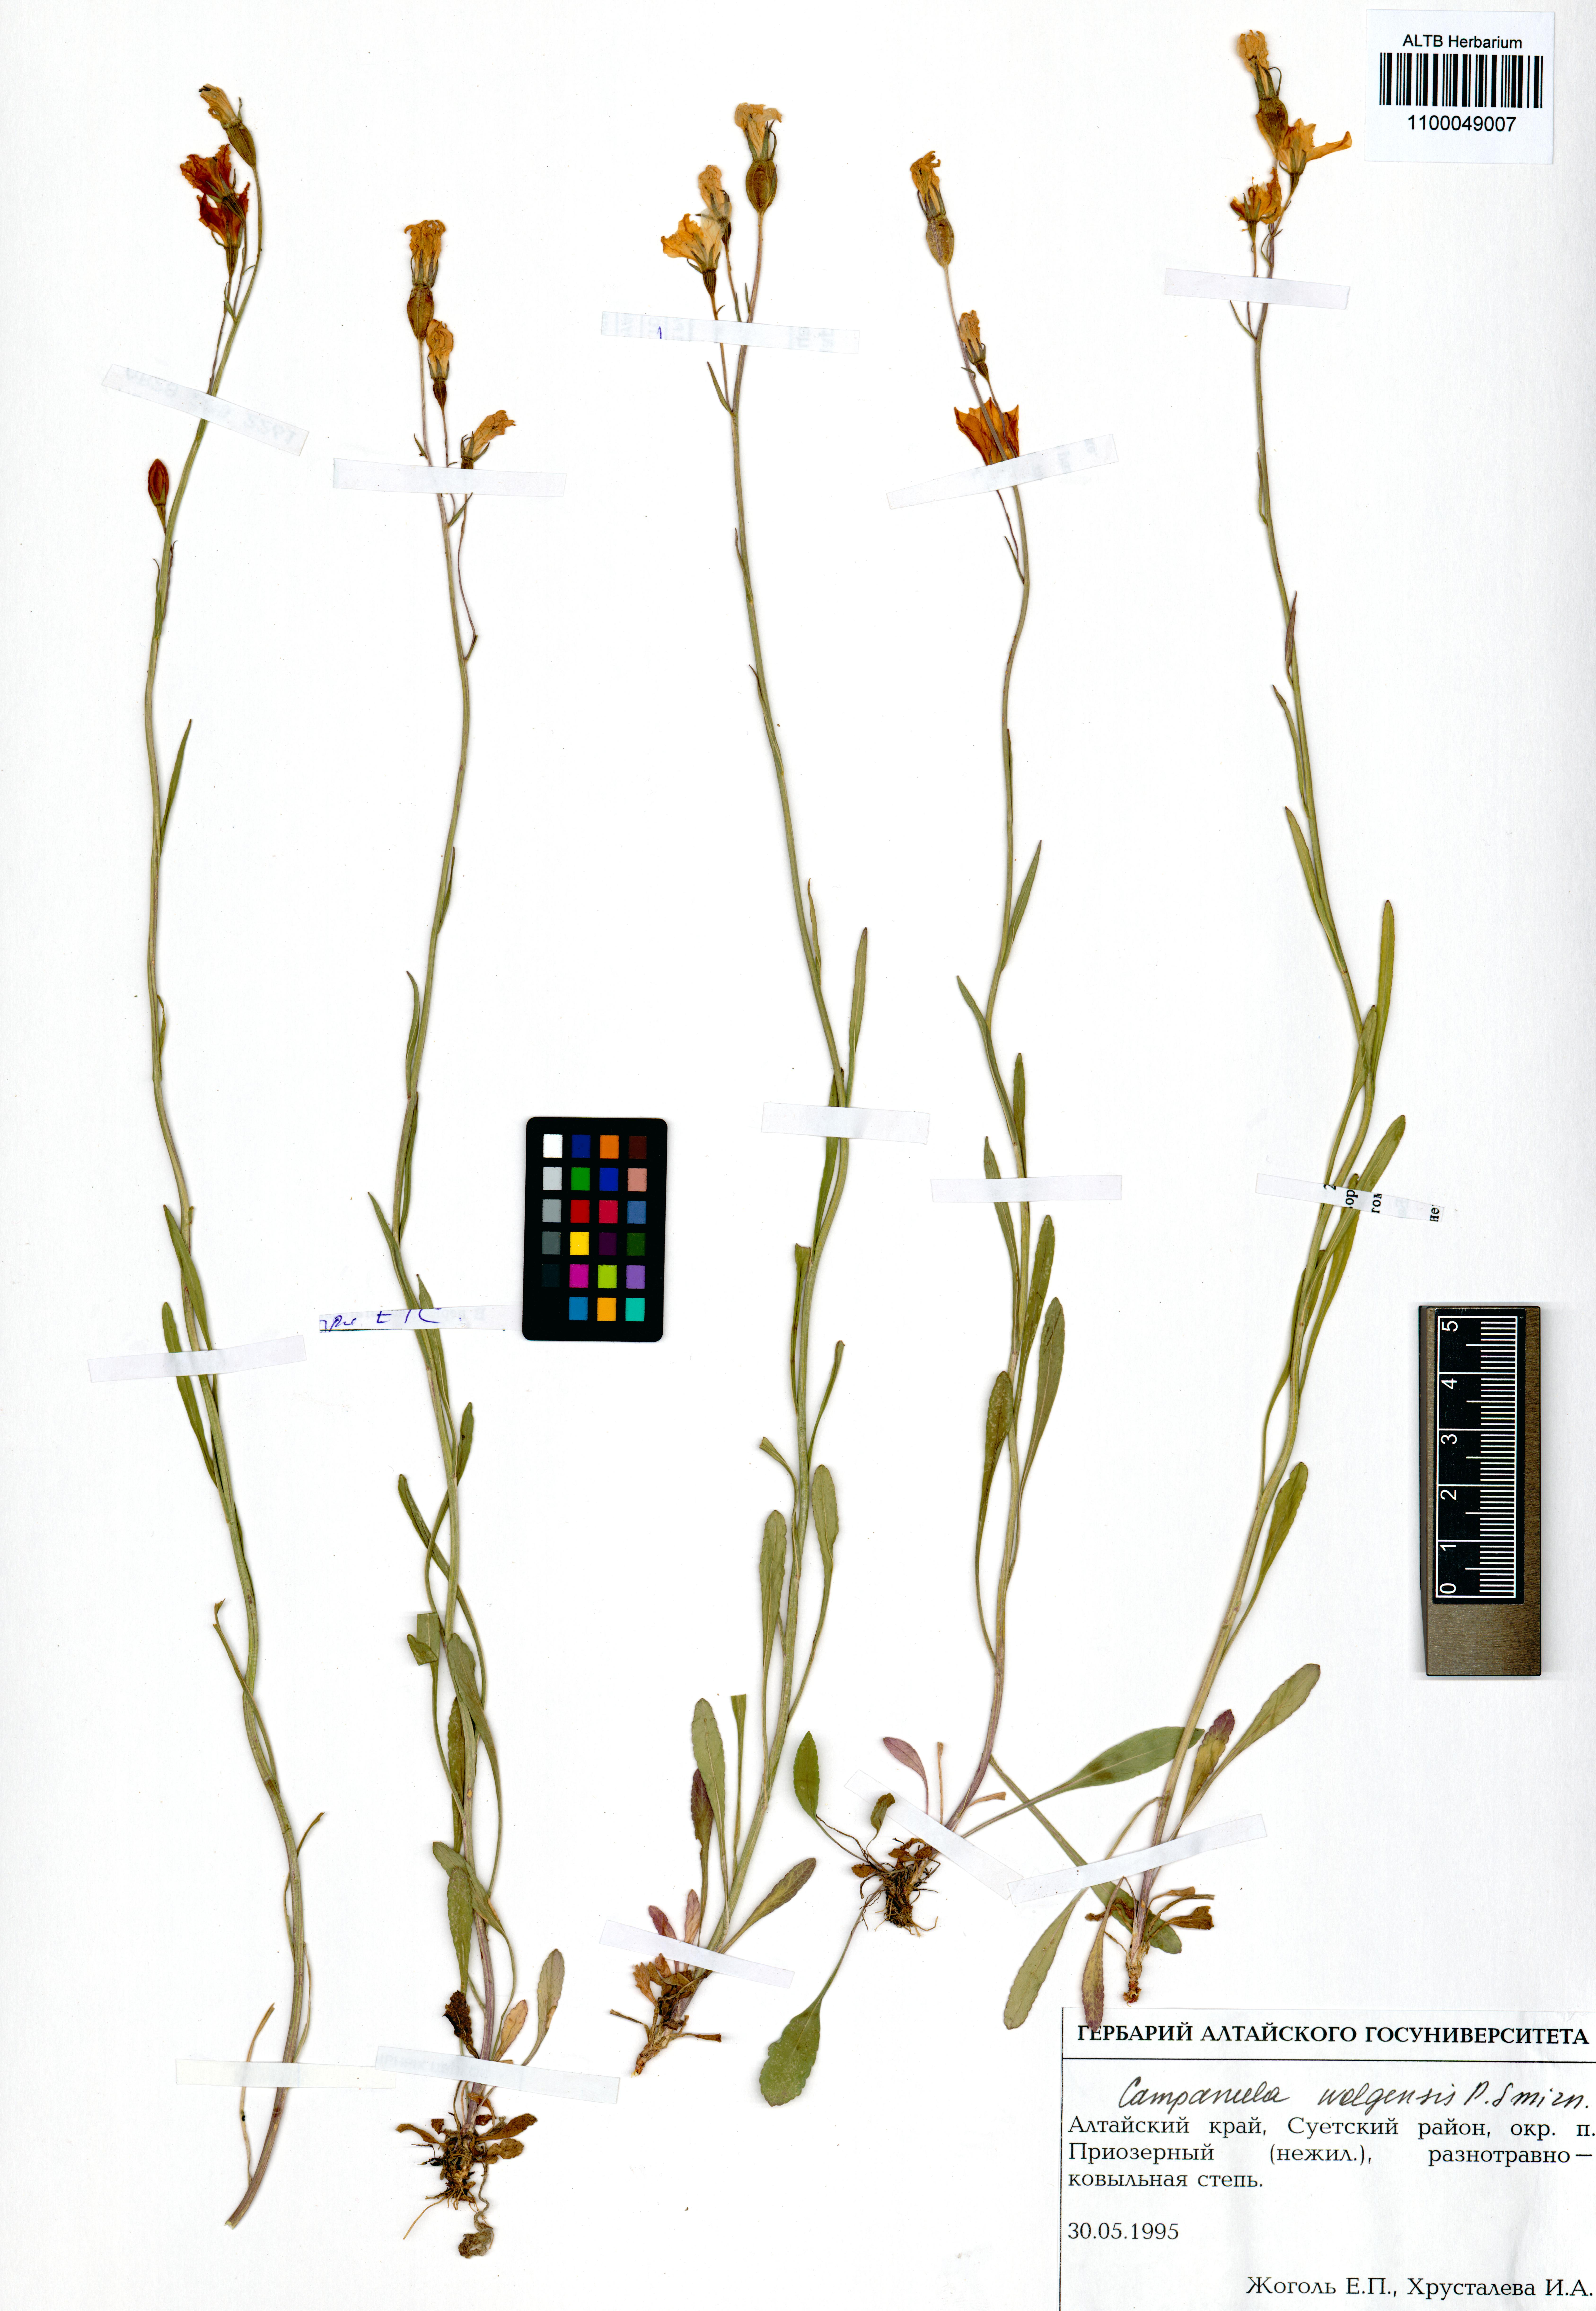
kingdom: Plantae
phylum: Tracheophyta
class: Magnoliopsida
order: Asterales
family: Campanulaceae
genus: Campanula
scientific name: Campanula stevenii
